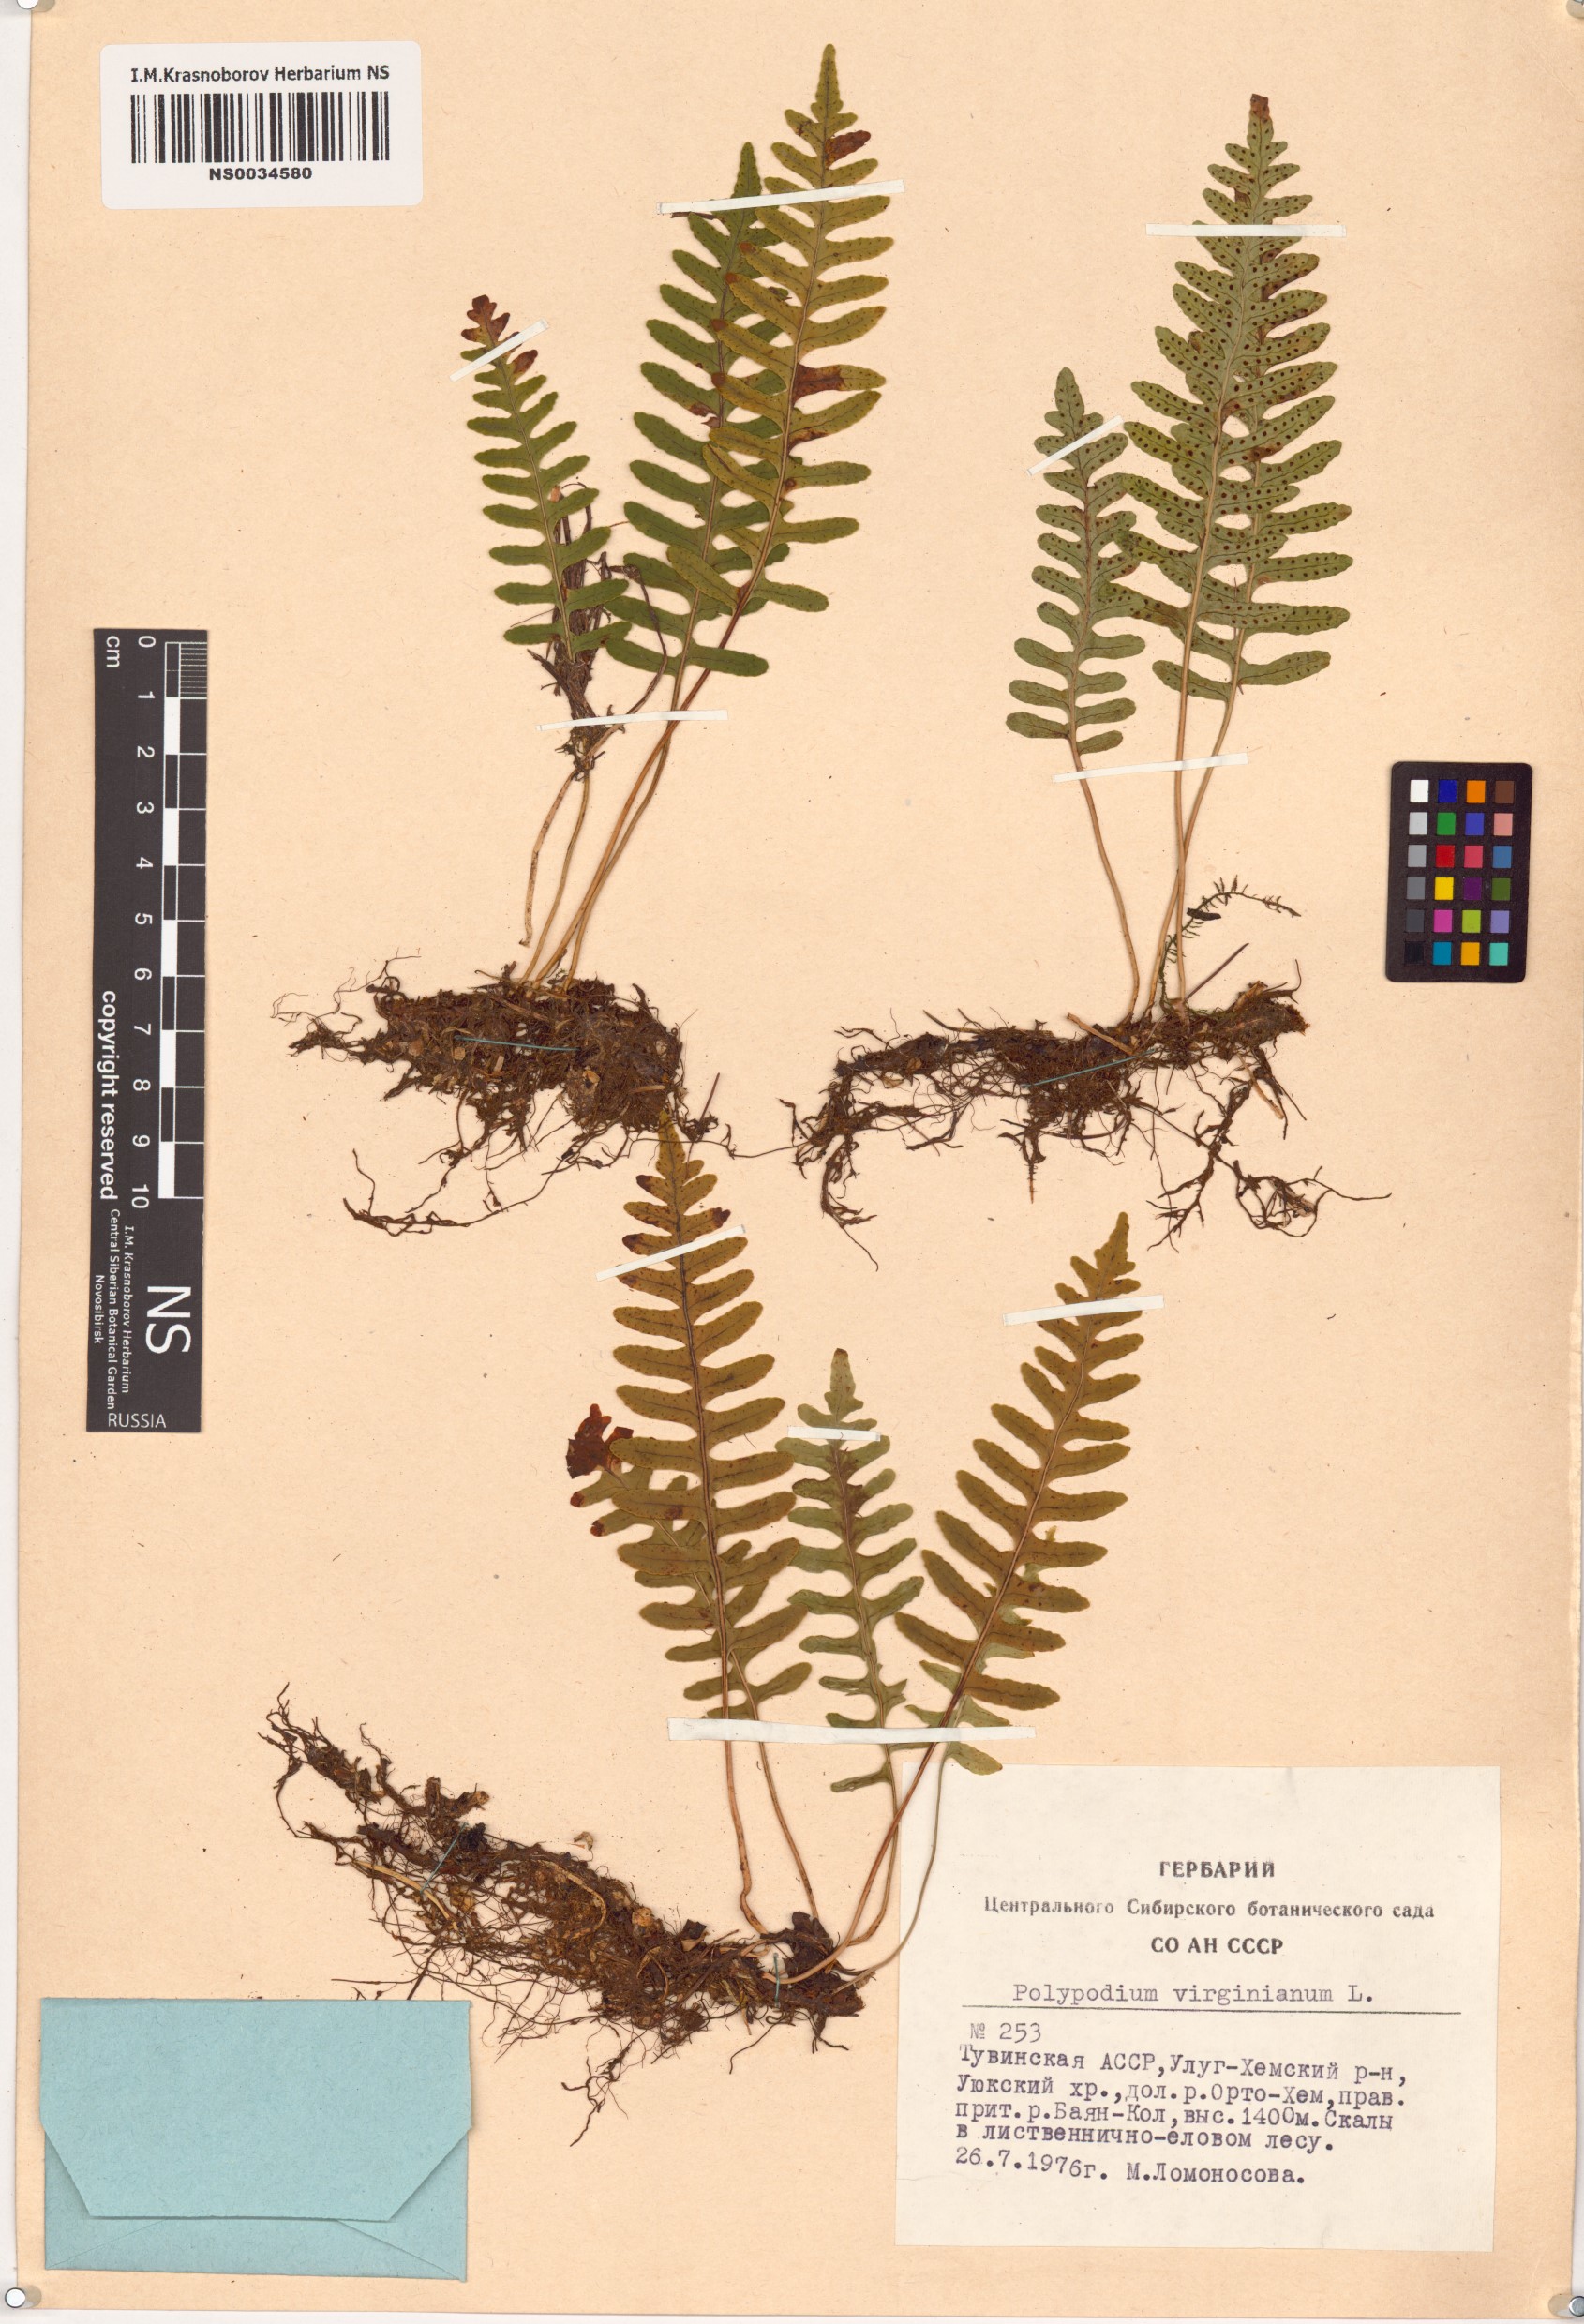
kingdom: Plantae
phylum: Tracheophyta
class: Polypodiopsida
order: Polypodiales
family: Polypodiaceae
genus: Polypodium
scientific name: Polypodium virginianum
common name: American wall fern
